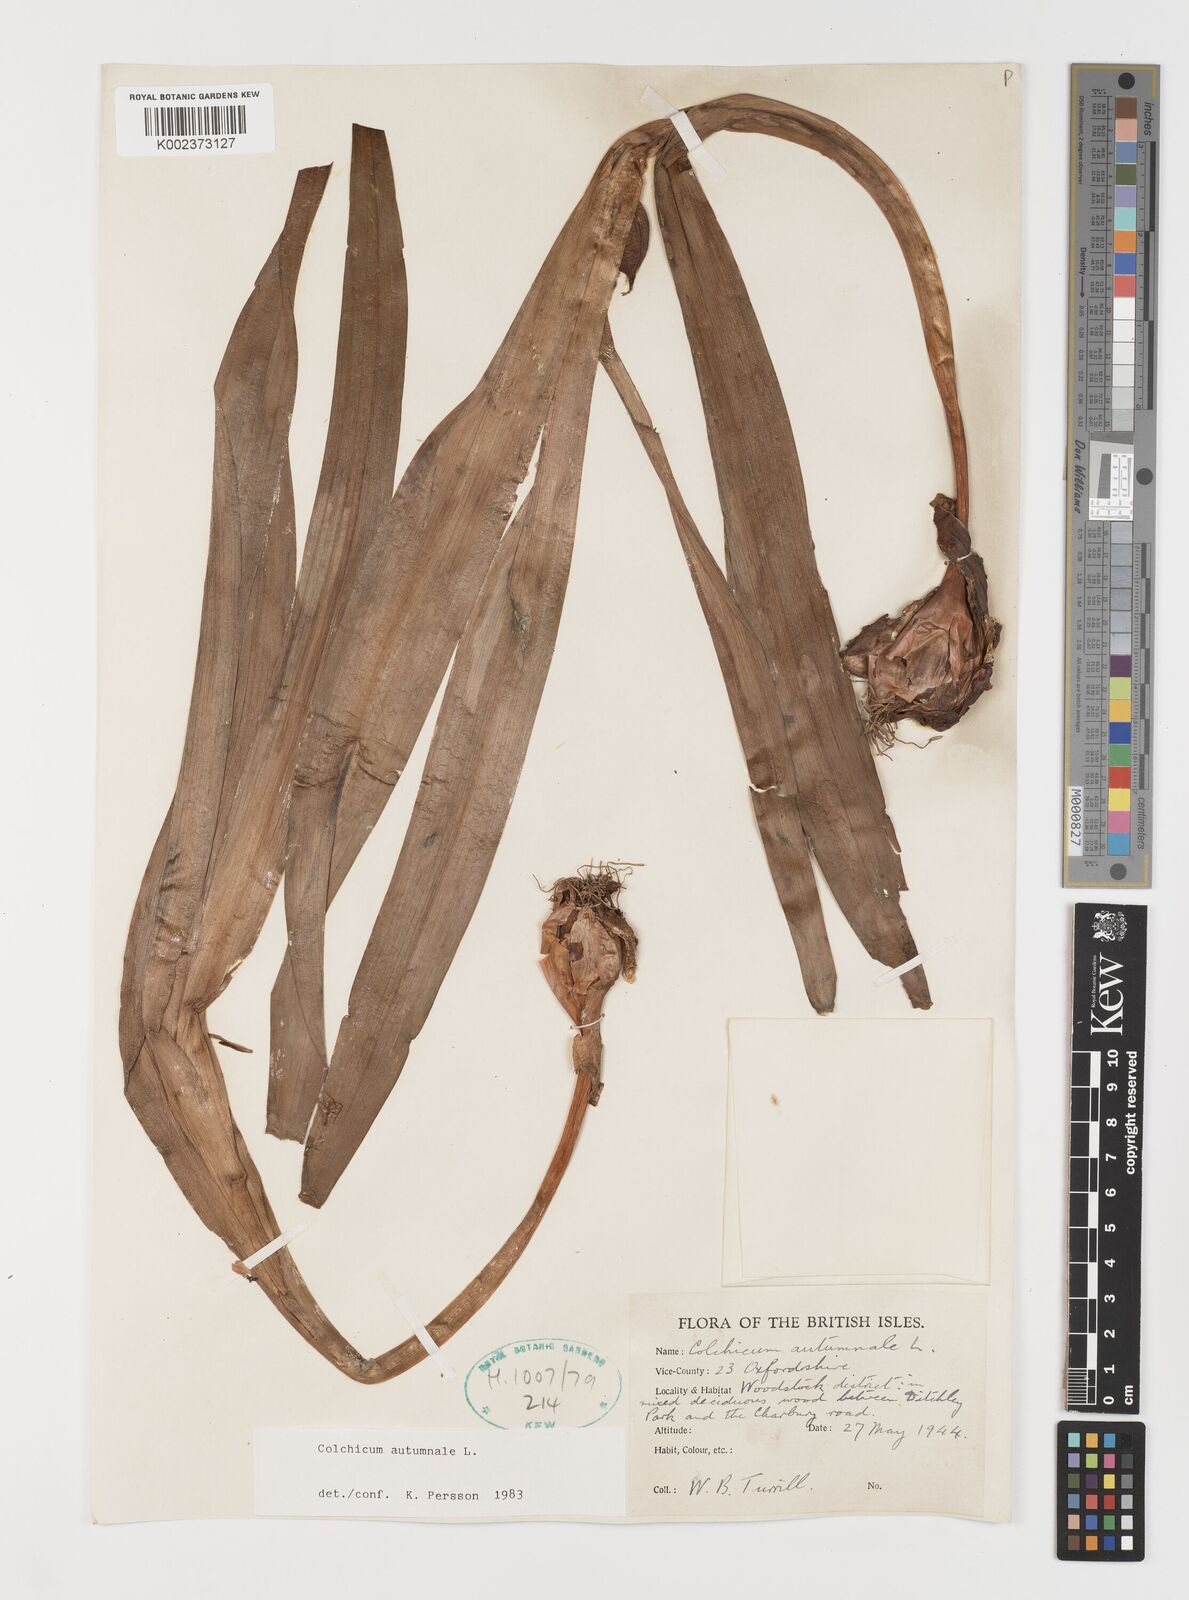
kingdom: Plantae
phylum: Tracheophyta
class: Liliopsida
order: Liliales
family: Colchicaceae
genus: Colchicum
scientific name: Colchicum autumnale
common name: Autumn crocus
